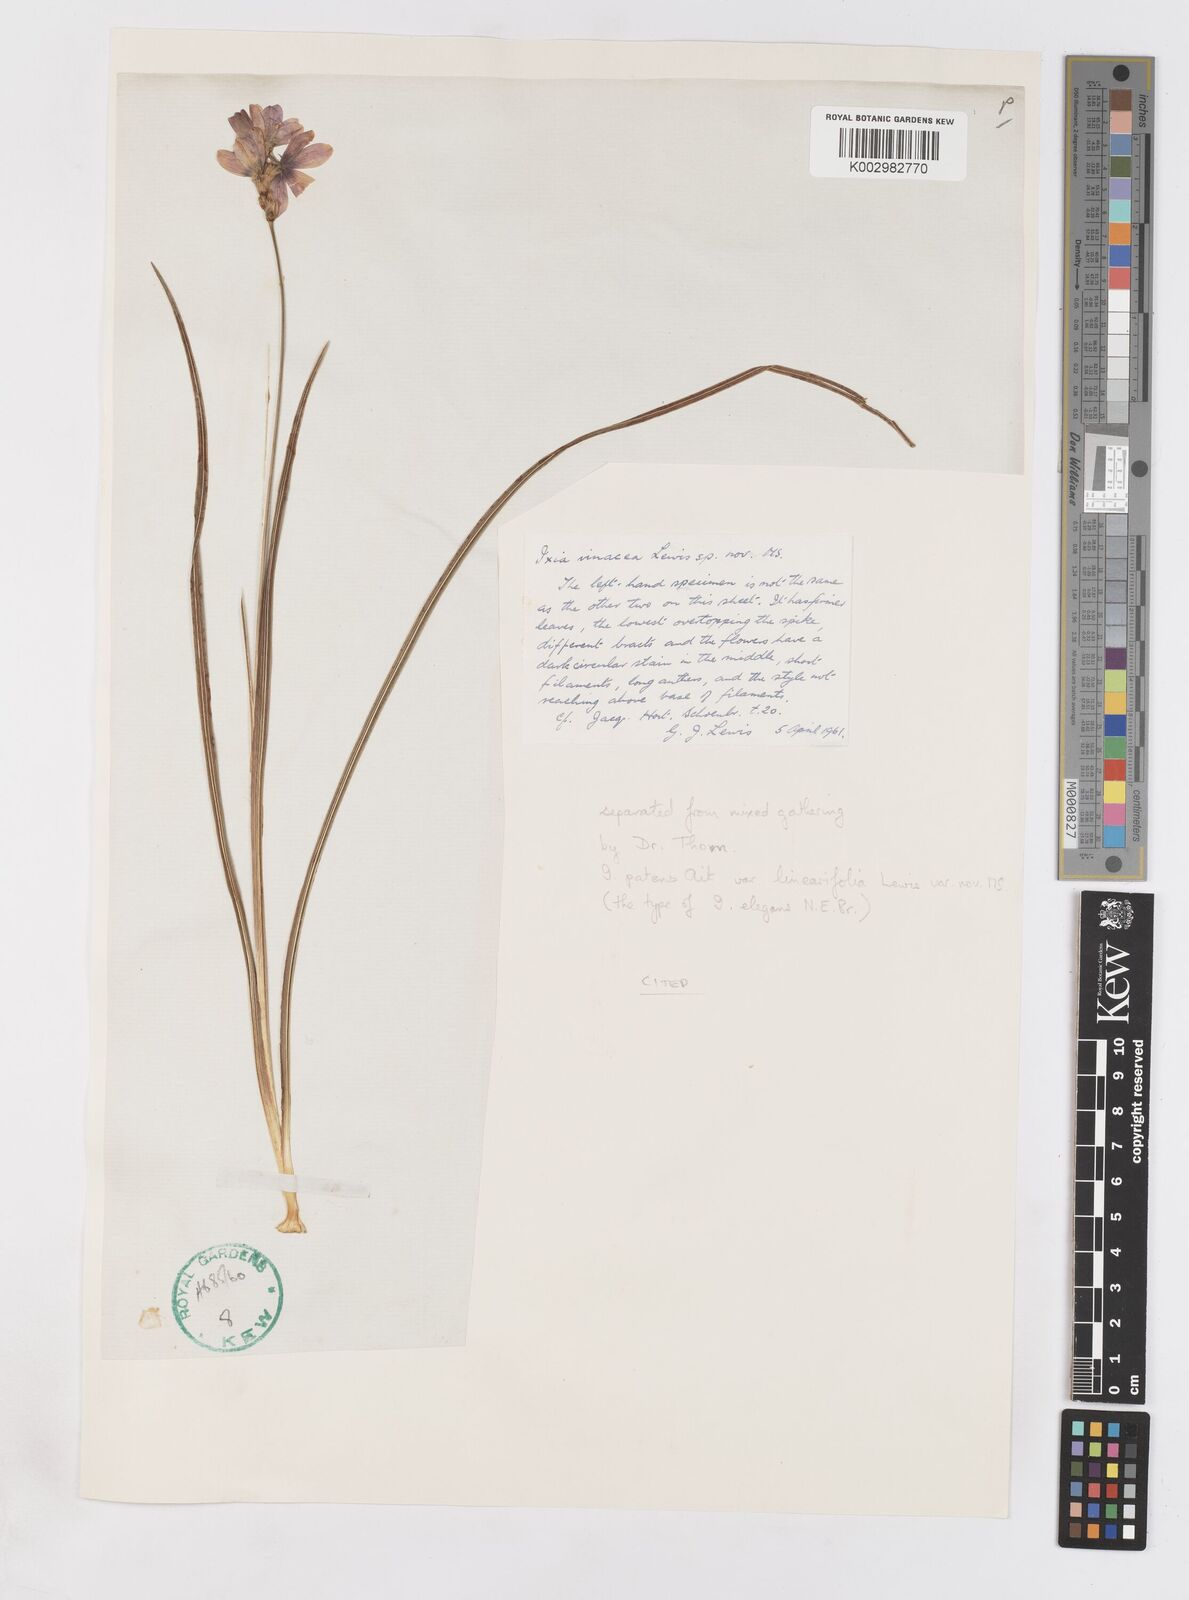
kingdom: Plantae
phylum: Tracheophyta
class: Liliopsida
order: Asparagales
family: Iridaceae
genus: Ixia
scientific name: Ixia vinacea
